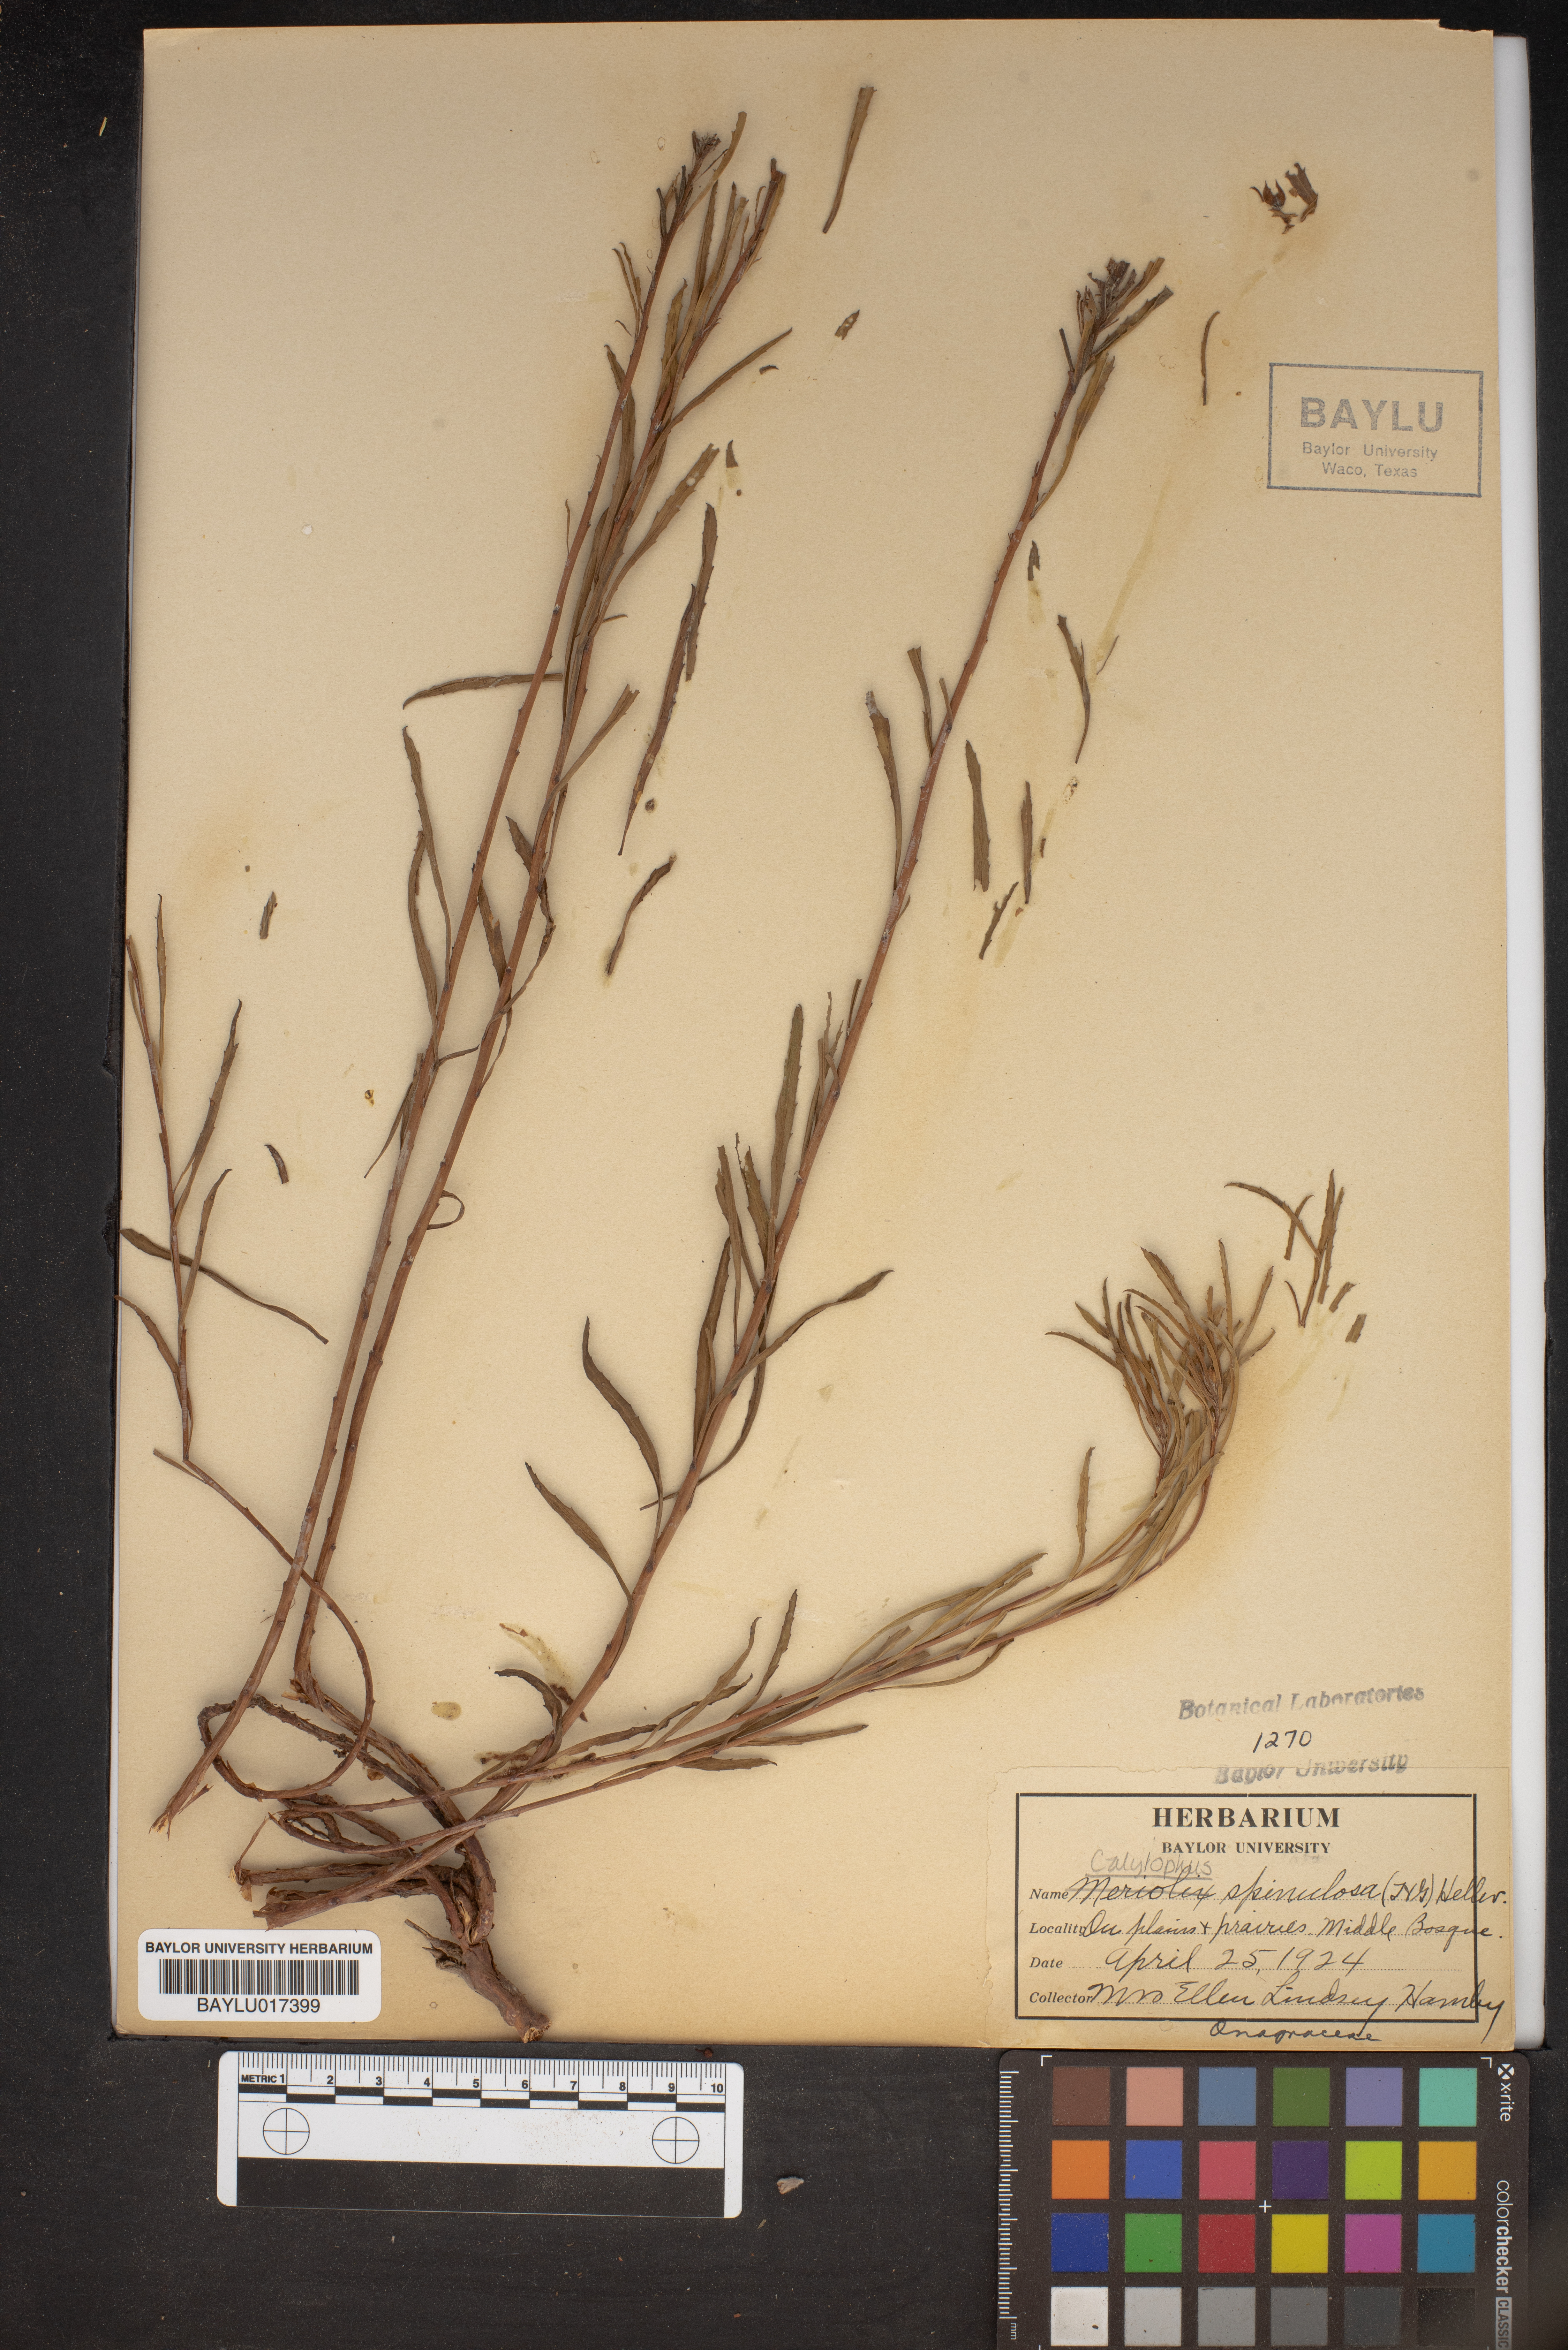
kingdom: Plantae
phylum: Tracheophyta
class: Magnoliopsida
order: Myrtales
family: Onagraceae
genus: Oenothera
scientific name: Oenothera
